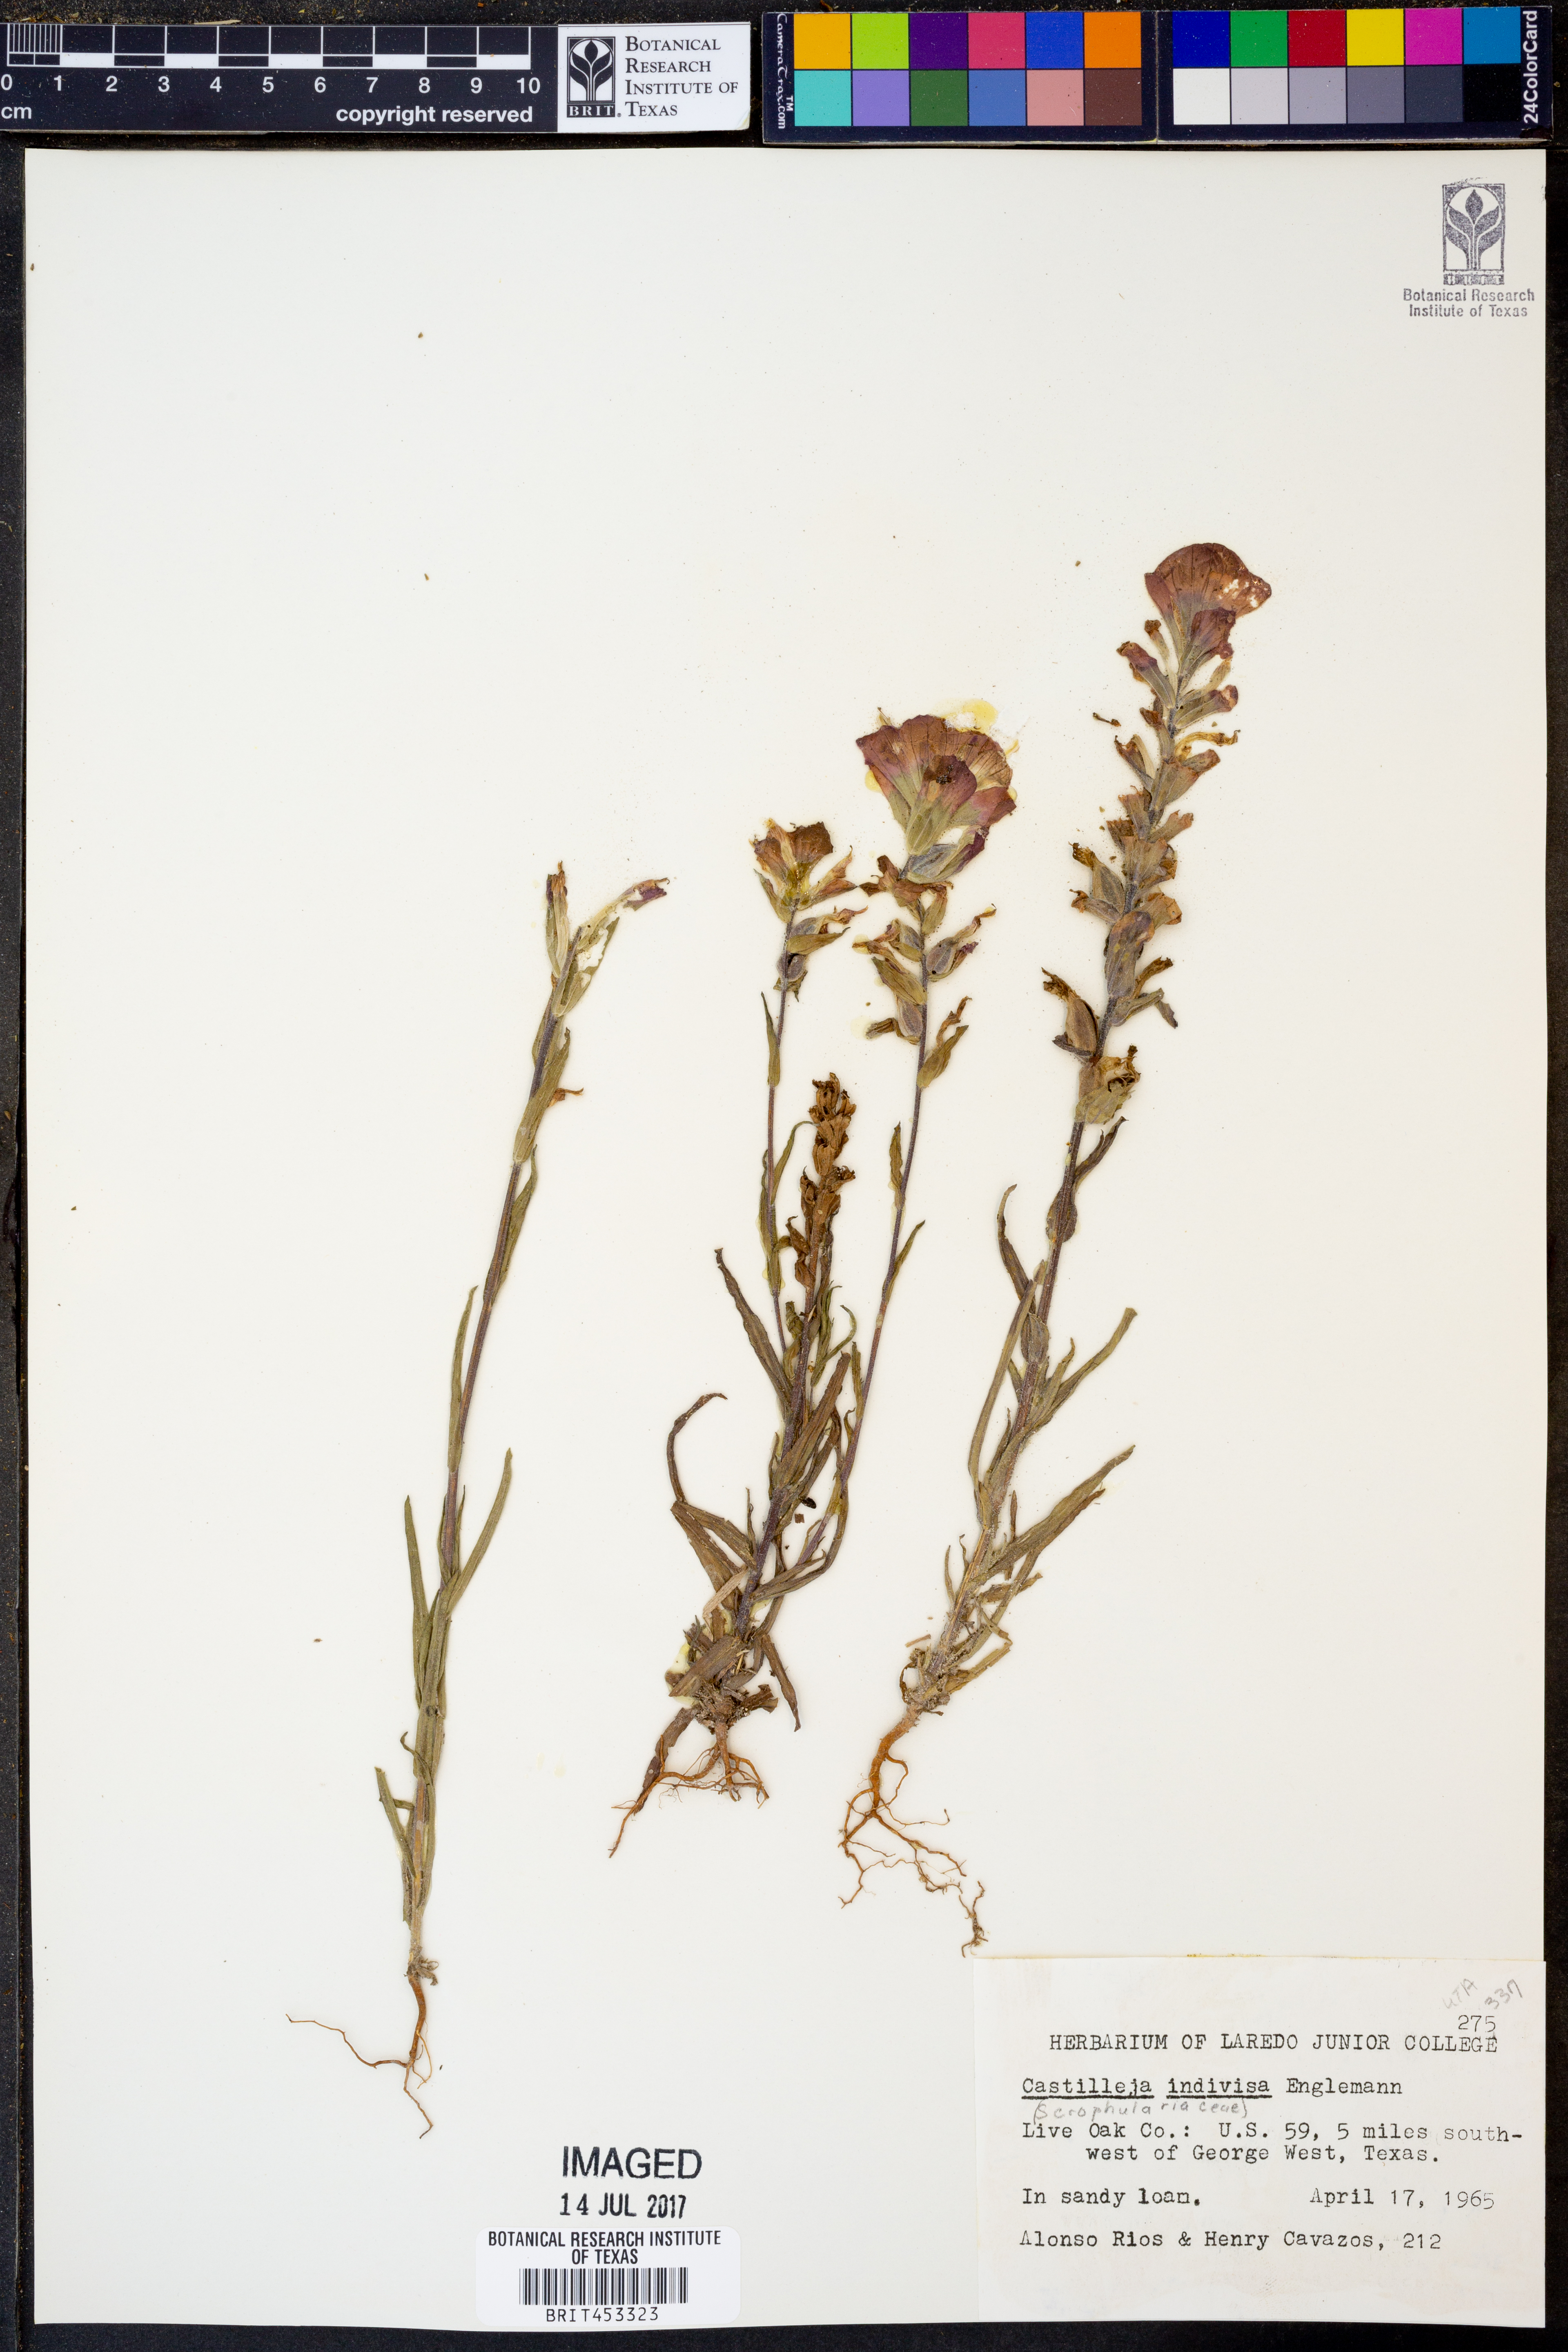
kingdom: Plantae
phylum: Tracheophyta
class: Magnoliopsida
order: Lamiales
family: Orobanchaceae
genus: Castilleja
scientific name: Castilleja indivisa
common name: Texas paintbrush
